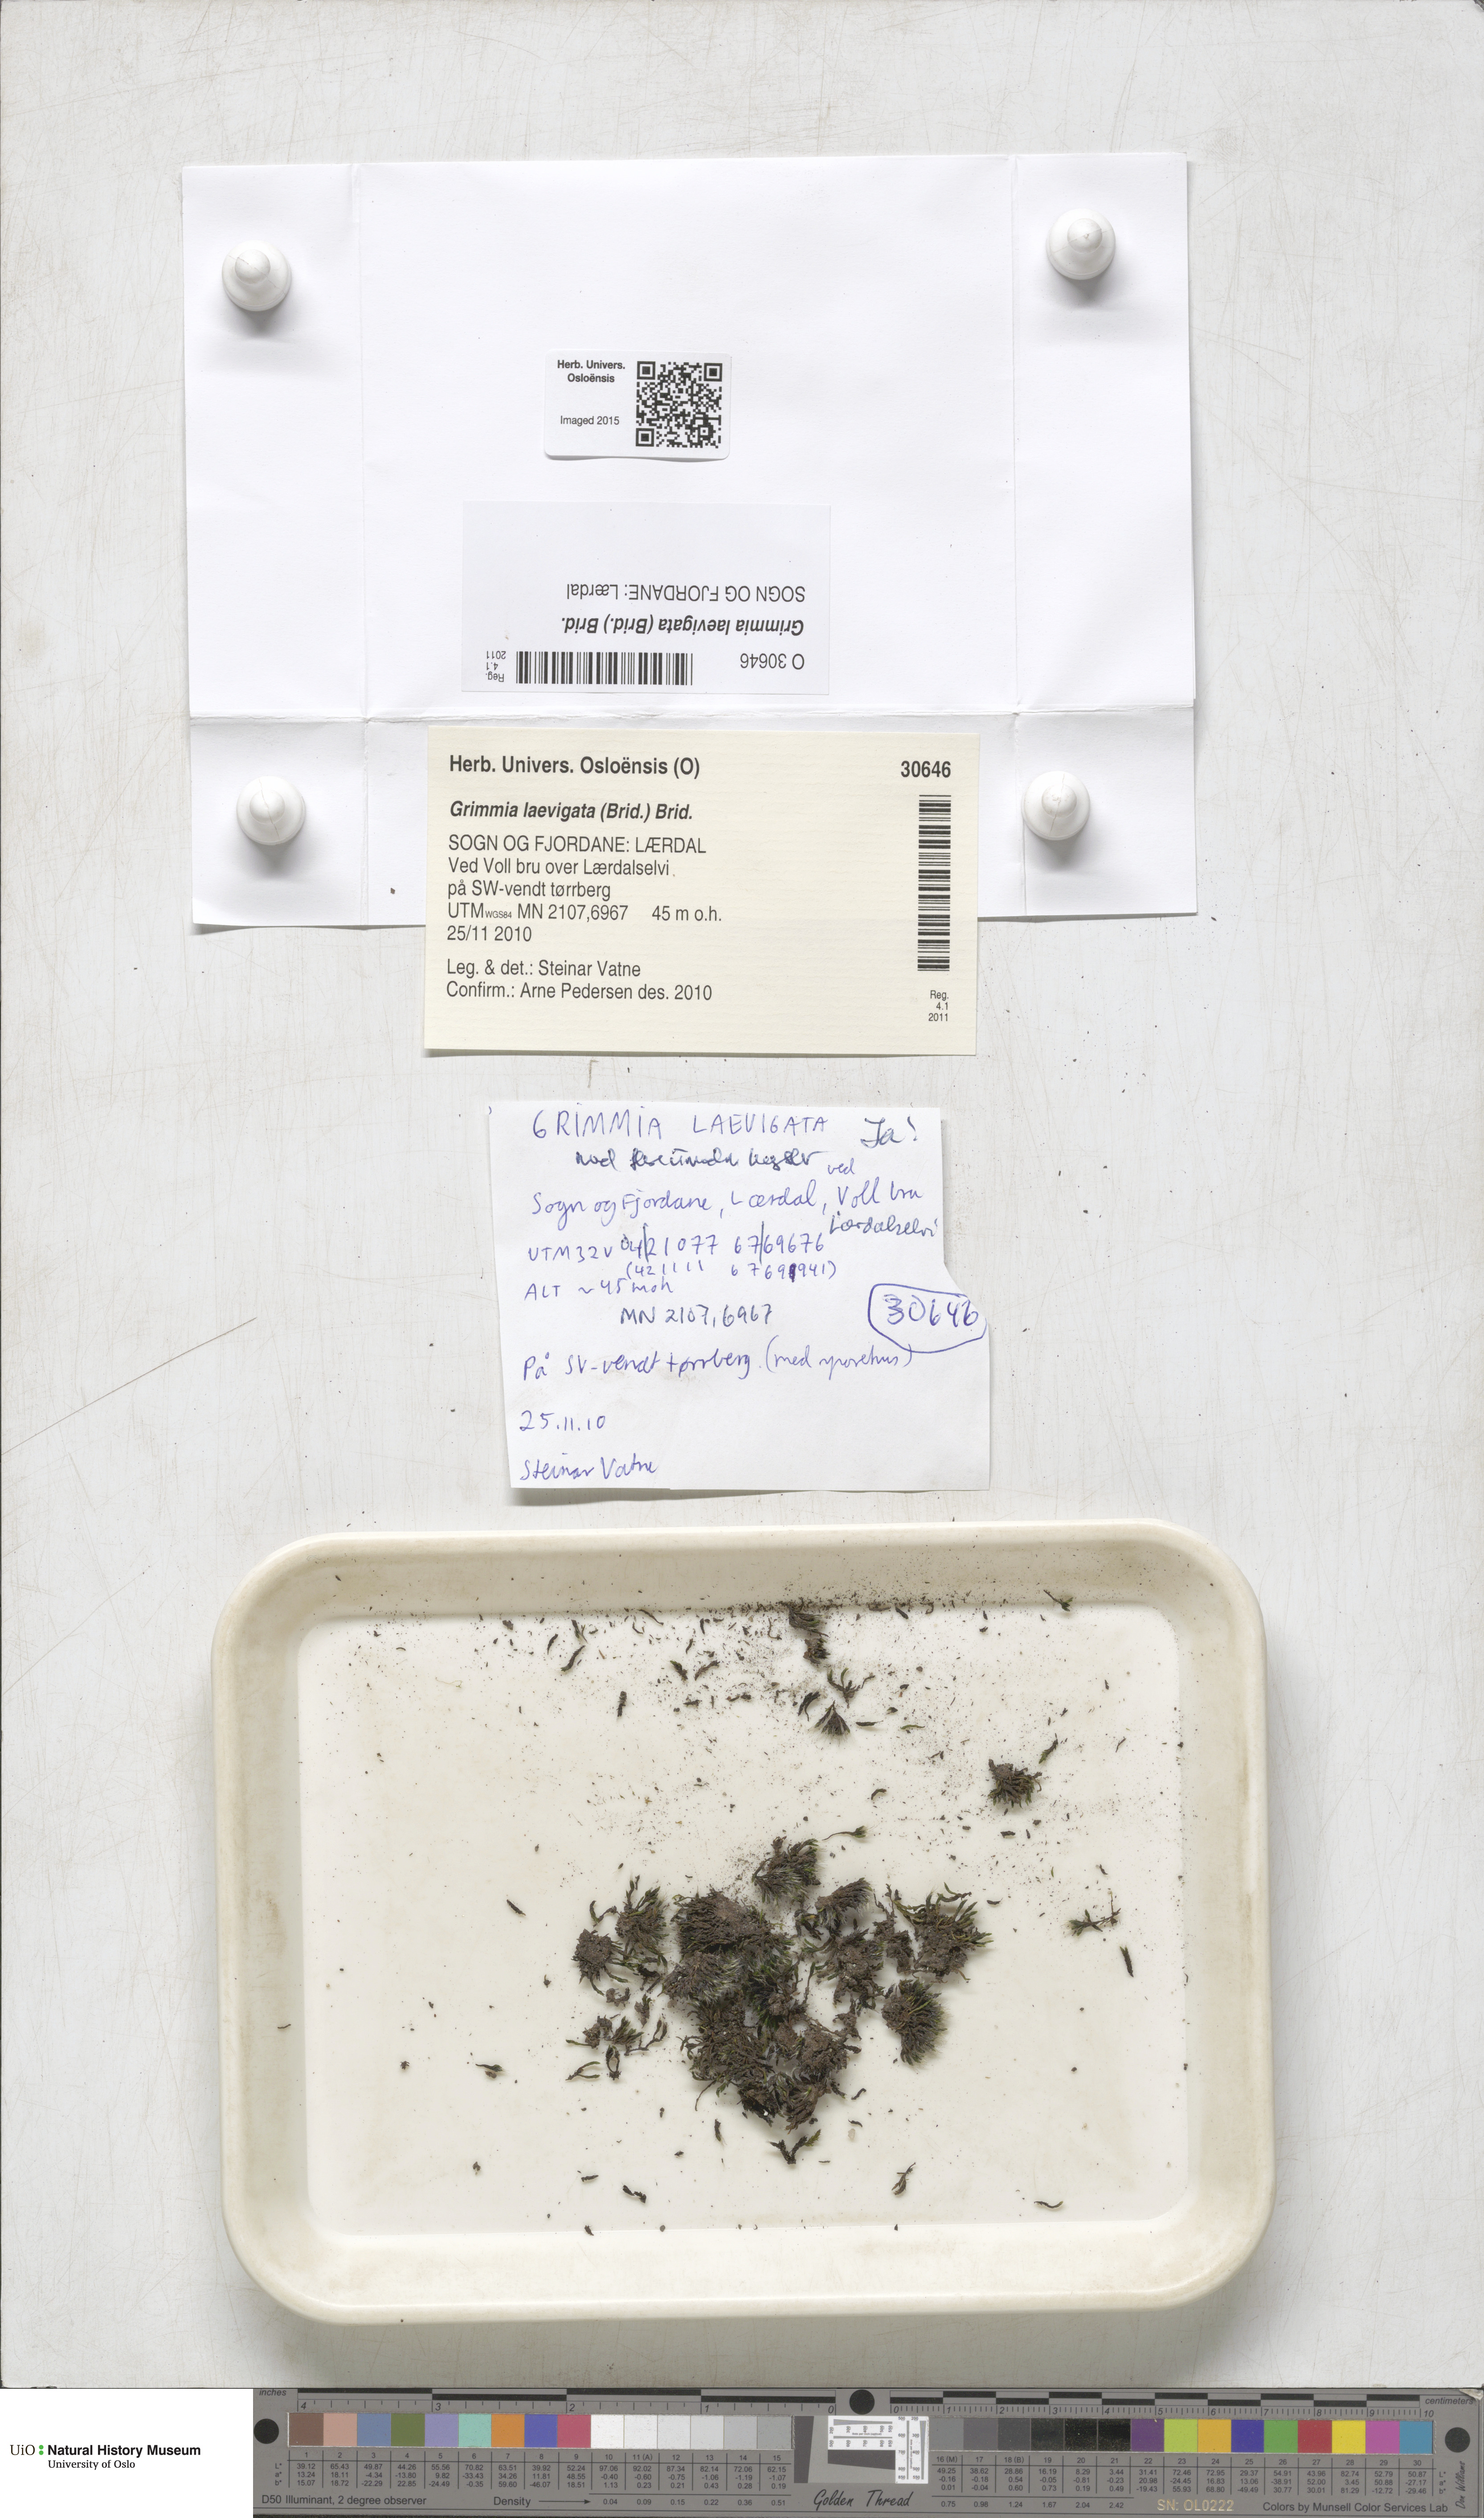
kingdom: Plantae
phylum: Bryophyta
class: Bryopsida
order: Grimmiales
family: Grimmiaceae
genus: Grimmia
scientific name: Grimmia laevigata
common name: Hoary grimmia
